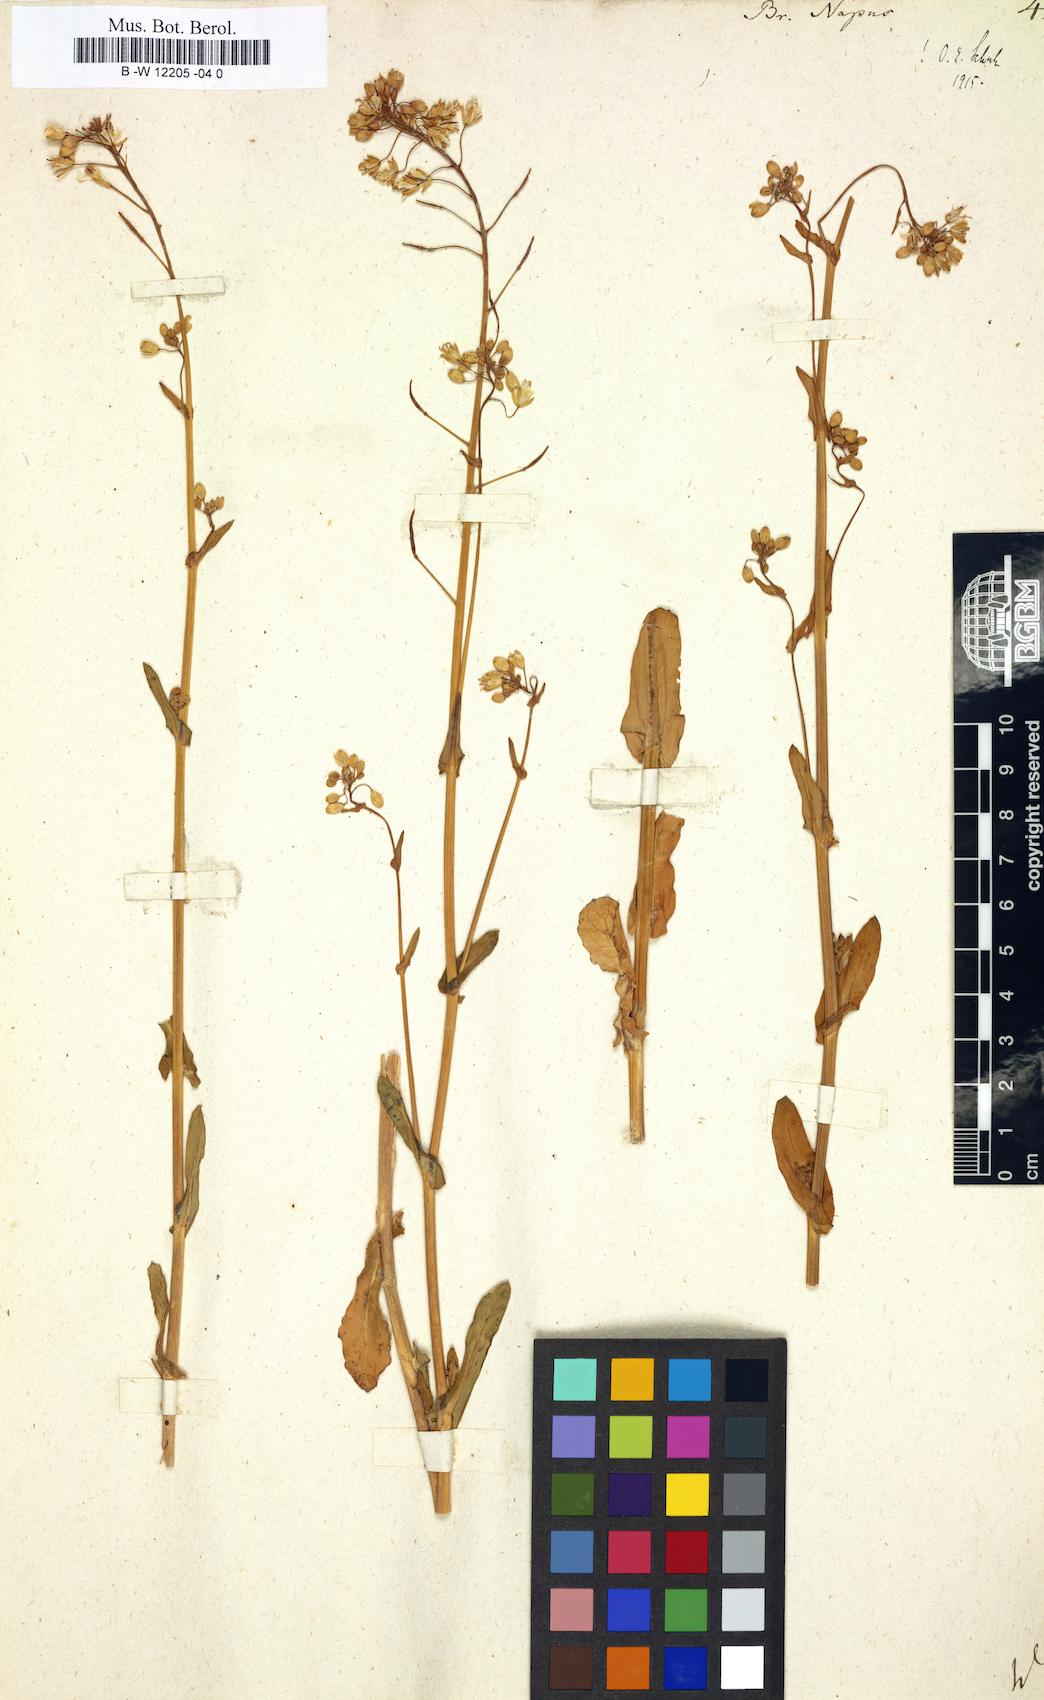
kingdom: Plantae
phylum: Tracheophyta
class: Magnoliopsida
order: Brassicales
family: Brassicaceae
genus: Brassica
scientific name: Brassica napus
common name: Rape
